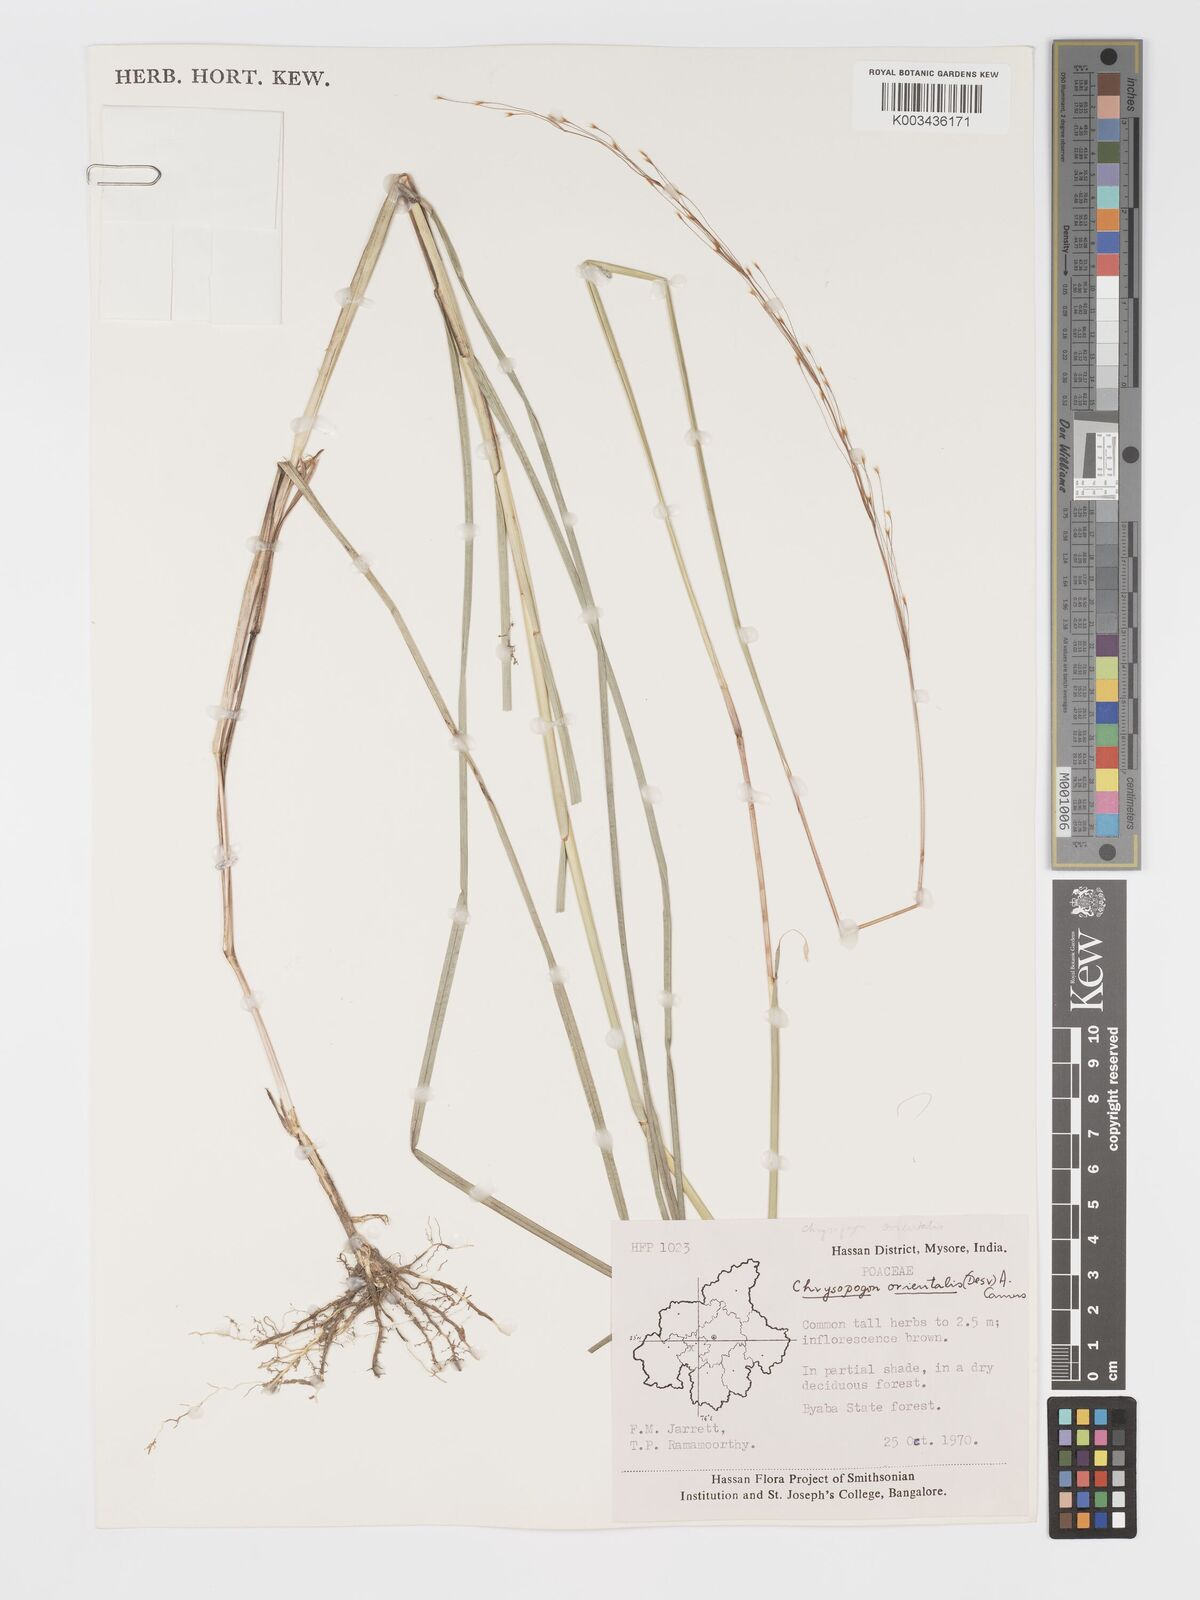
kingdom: Plantae
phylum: Tracheophyta
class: Liliopsida
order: Poales
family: Poaceae
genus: Chrysopogon
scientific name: Chrysopogon orientalis
